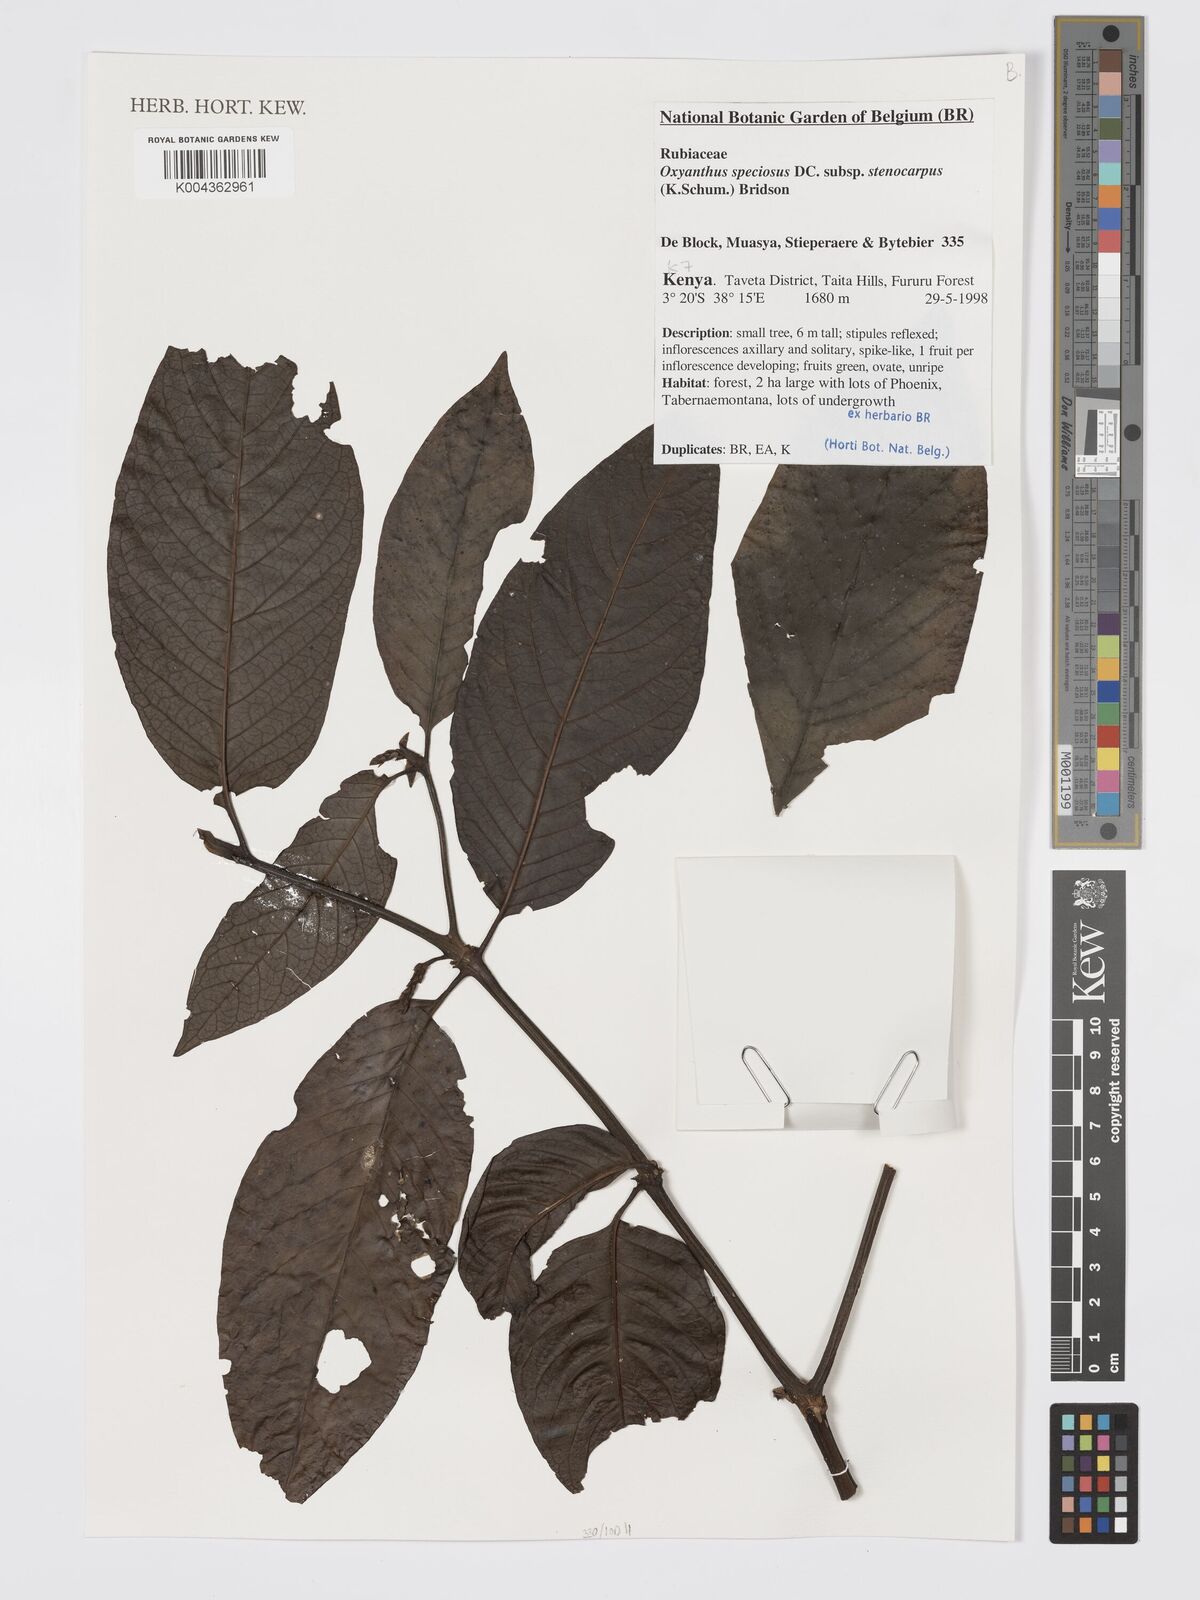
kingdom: Plantae
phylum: Tracheophyta
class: Magnoliopsida
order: Gentianales
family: Rubiaceae
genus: Oxyanthus
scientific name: Oxyanthus speciosus
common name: Whipstick loquat
